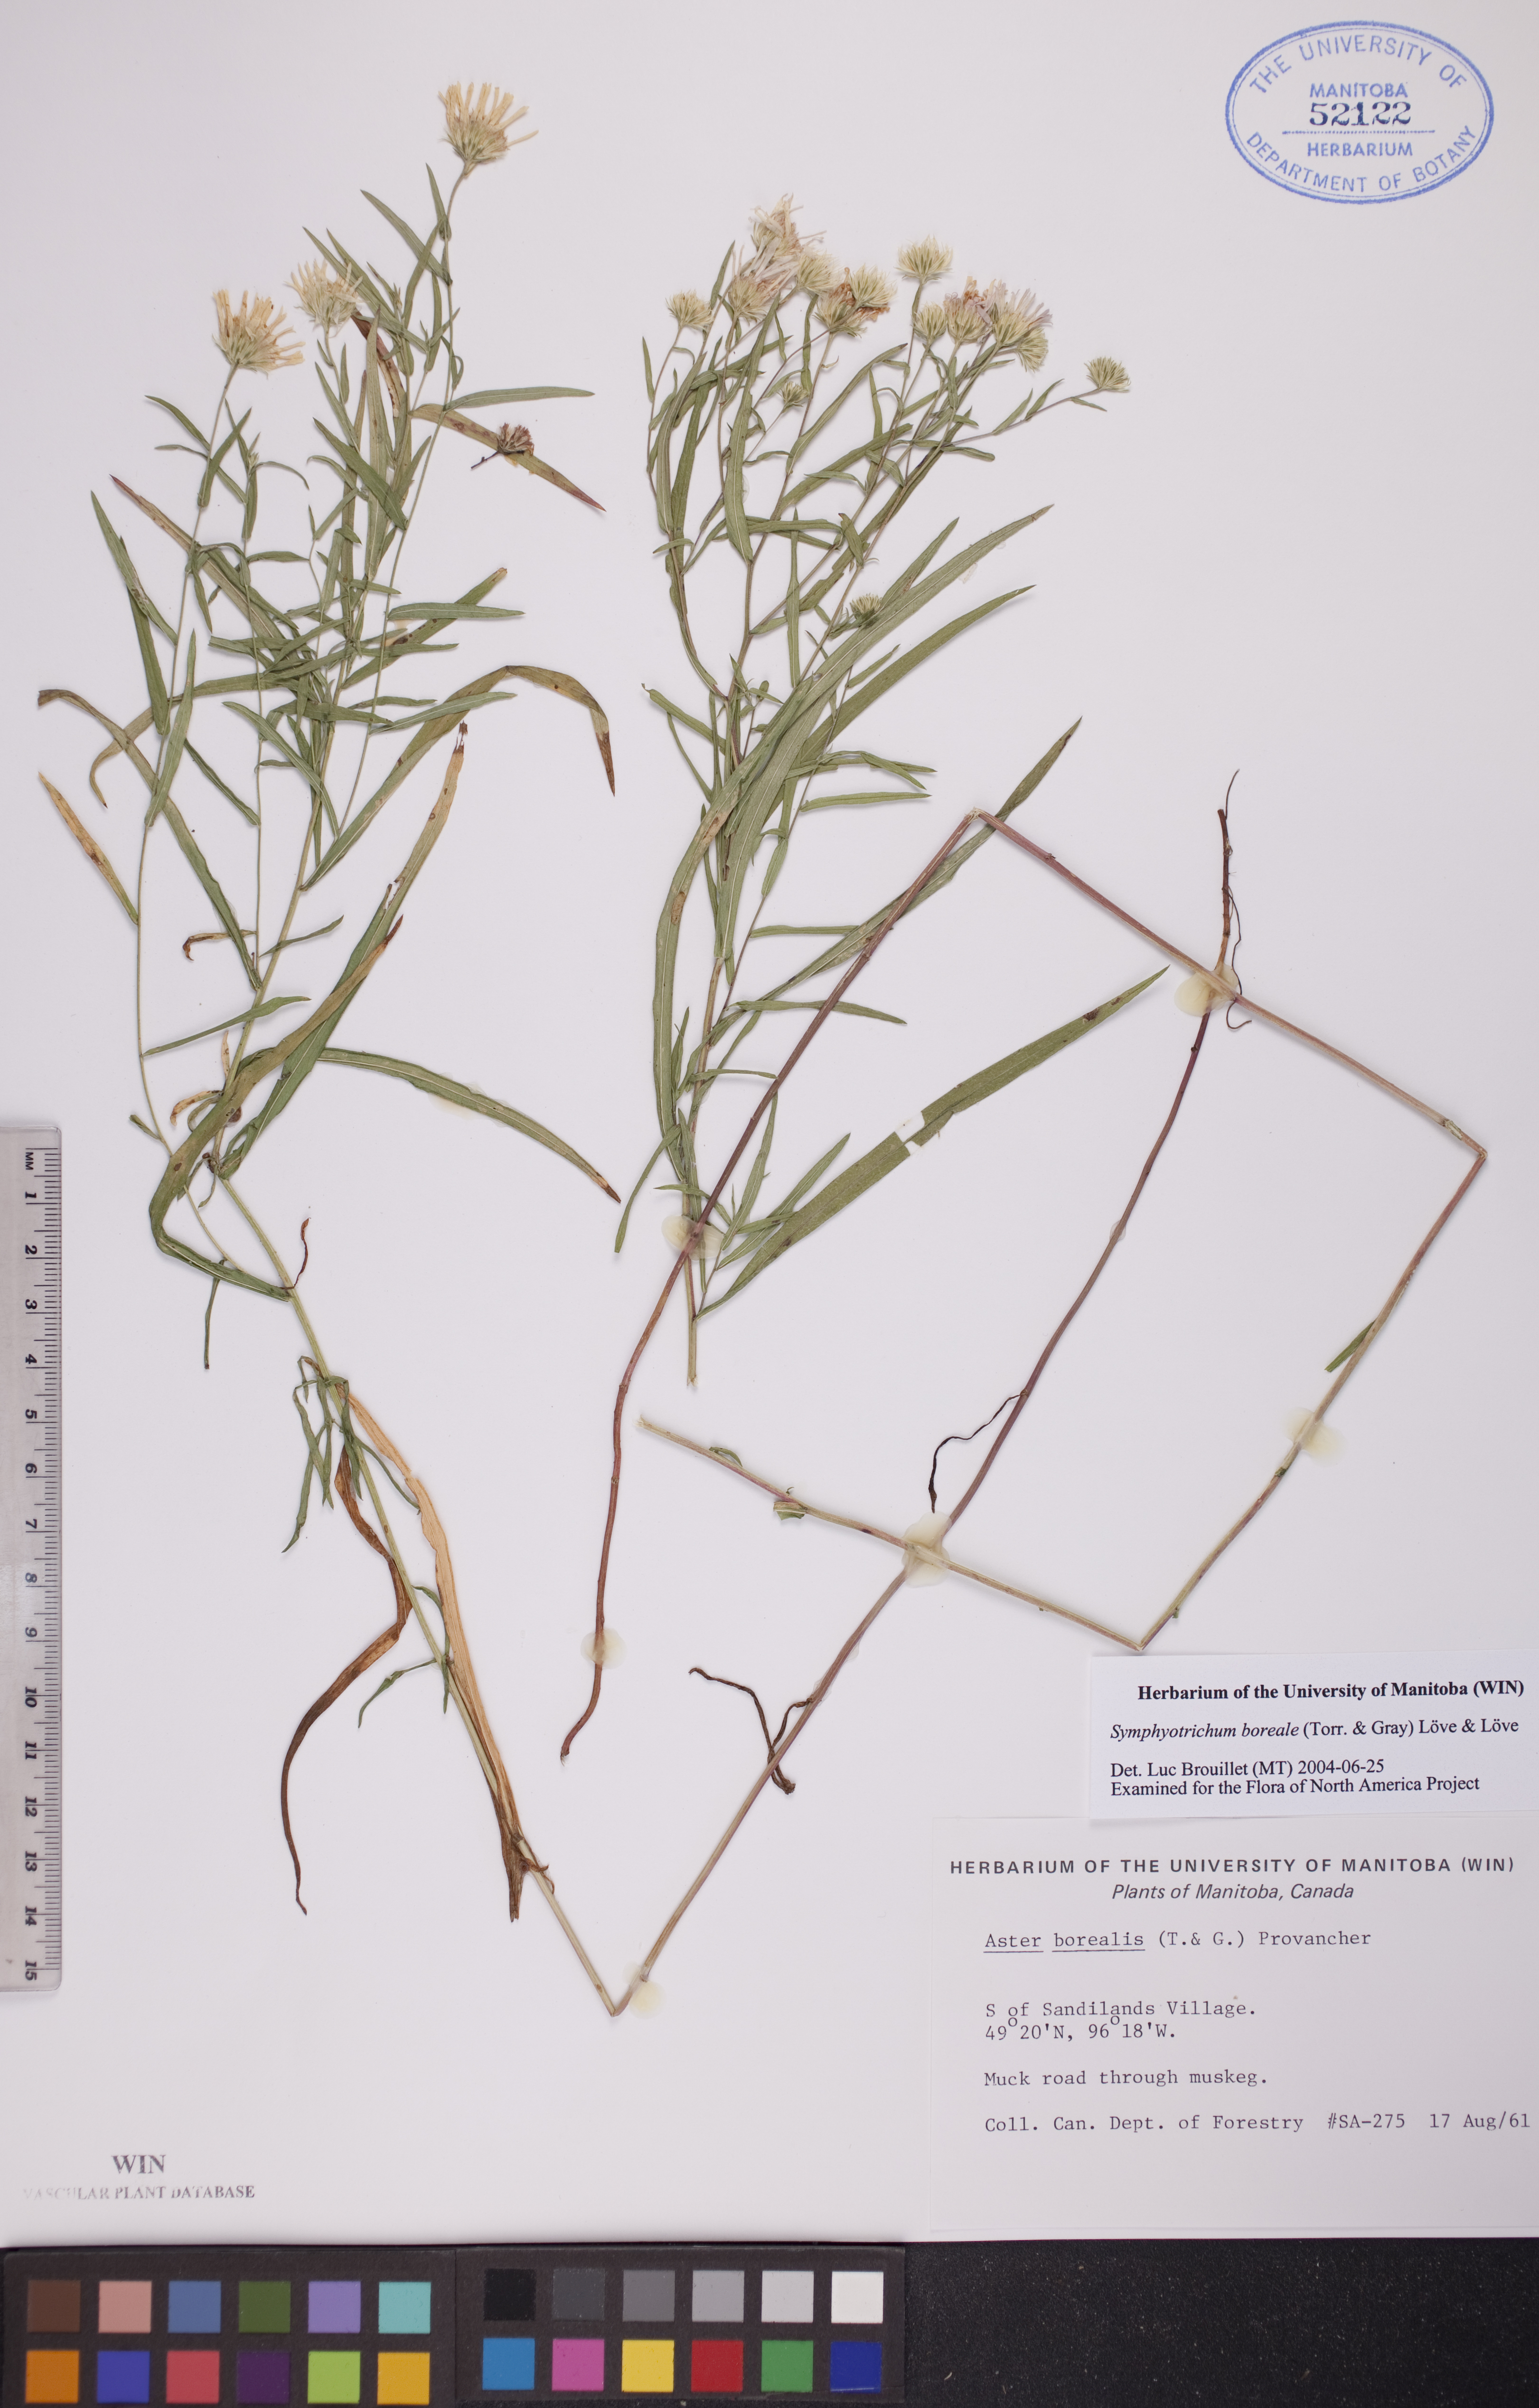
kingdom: Plantae
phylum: Tracheophyta
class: Magnoliopsida
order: Asterales
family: Asteraceae
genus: Symphyotrichum
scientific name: Symphyotrichum boreale
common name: Northern bog aster
